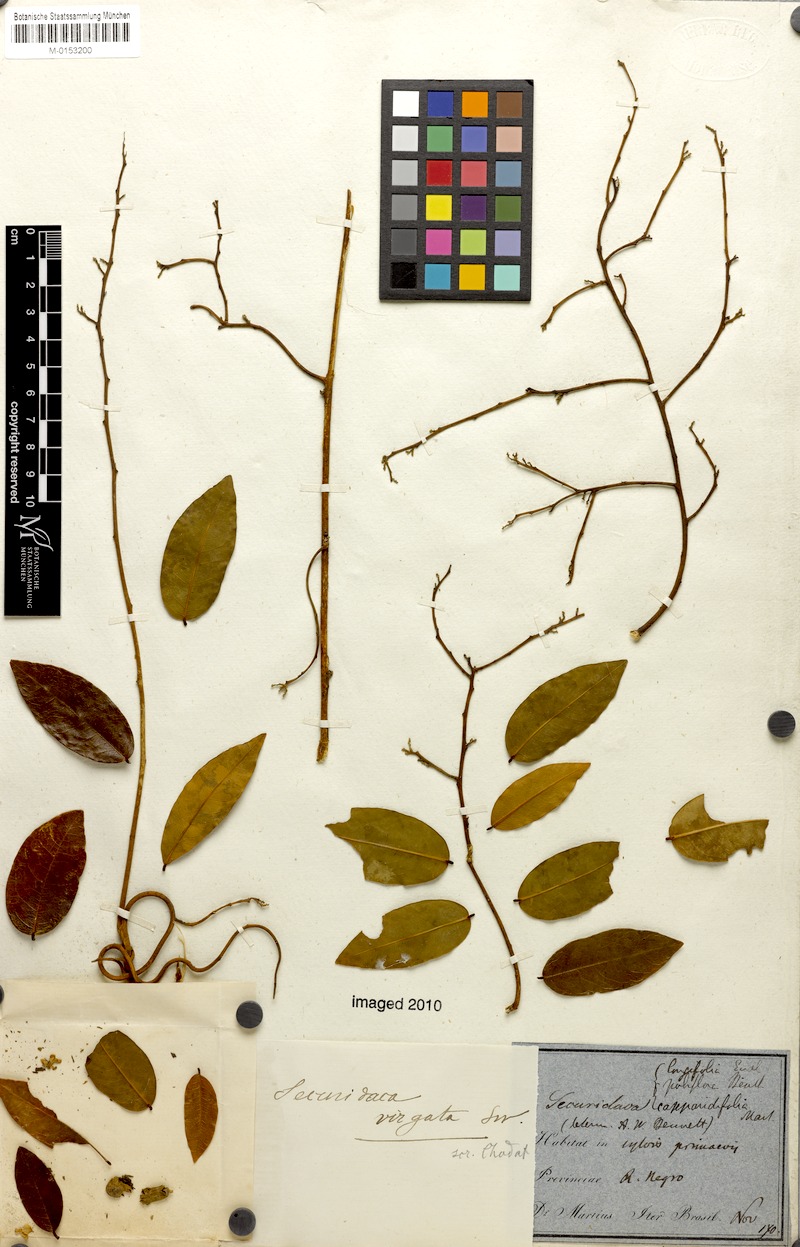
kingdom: Plantae
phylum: Tracheophyta
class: Magnoliopsida
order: Fabales
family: Polygalaceae
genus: Securidaca
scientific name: Securidaca virgata
